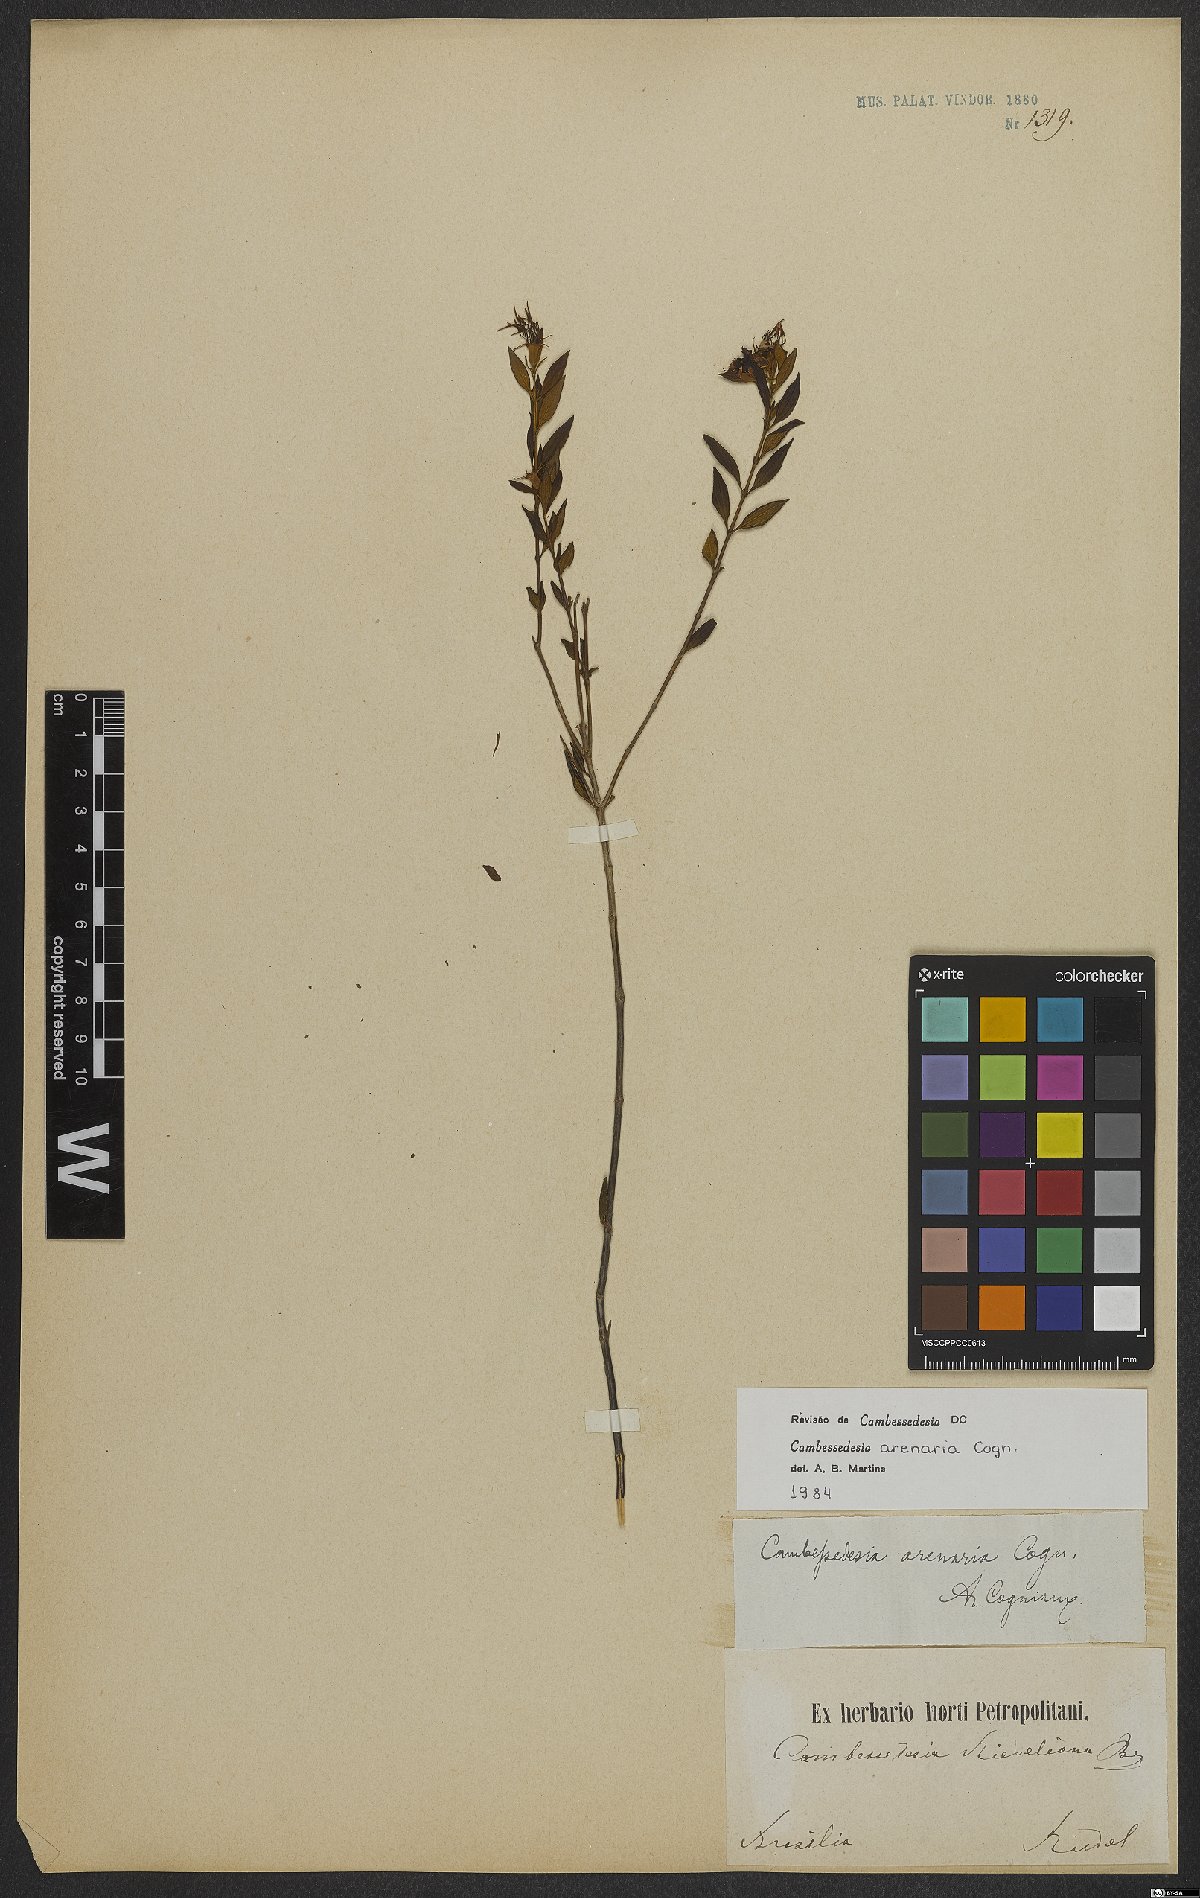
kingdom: Plantae
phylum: Tracheophyta
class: Magnoliopsida
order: Myrtales
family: Melastomataceae
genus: Cambessedesia
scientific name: Cambessedesia arenaria
